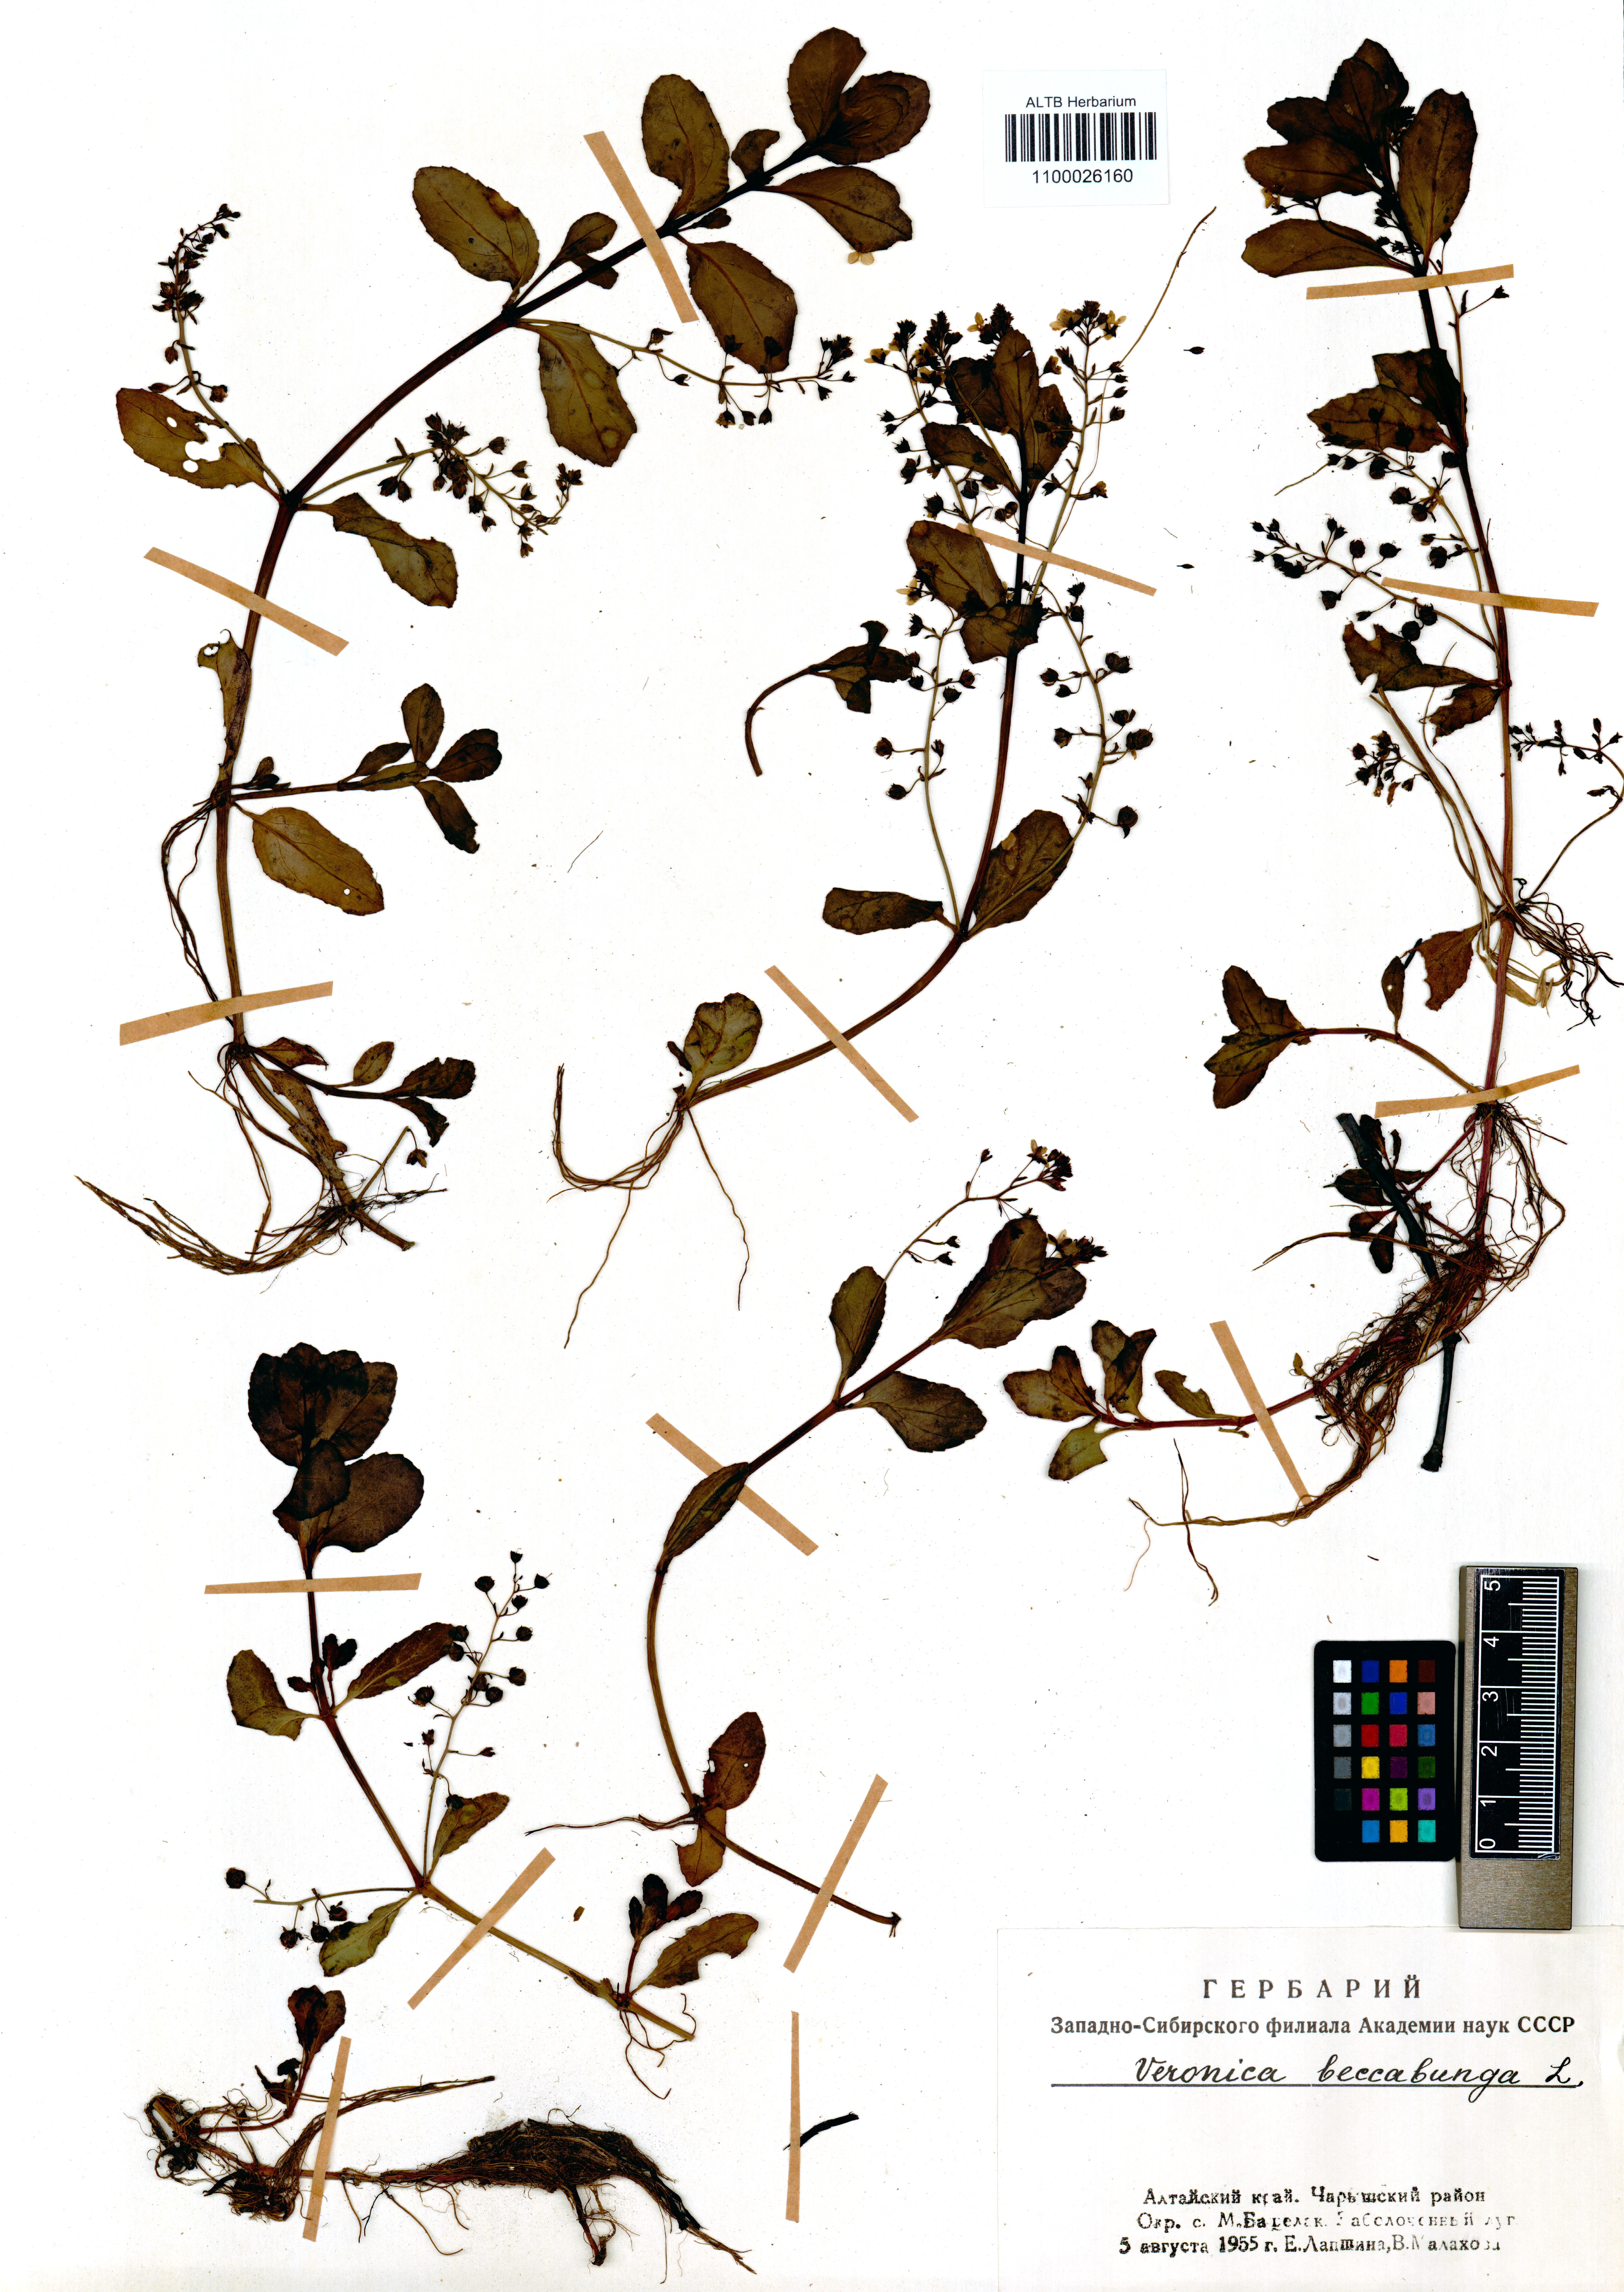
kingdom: Plantae
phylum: Tracheophyta
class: Magnoliopsida
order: Lamiales
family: Plantaginaceae
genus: Veronica
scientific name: Veronica beccabunga
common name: Brooklime
